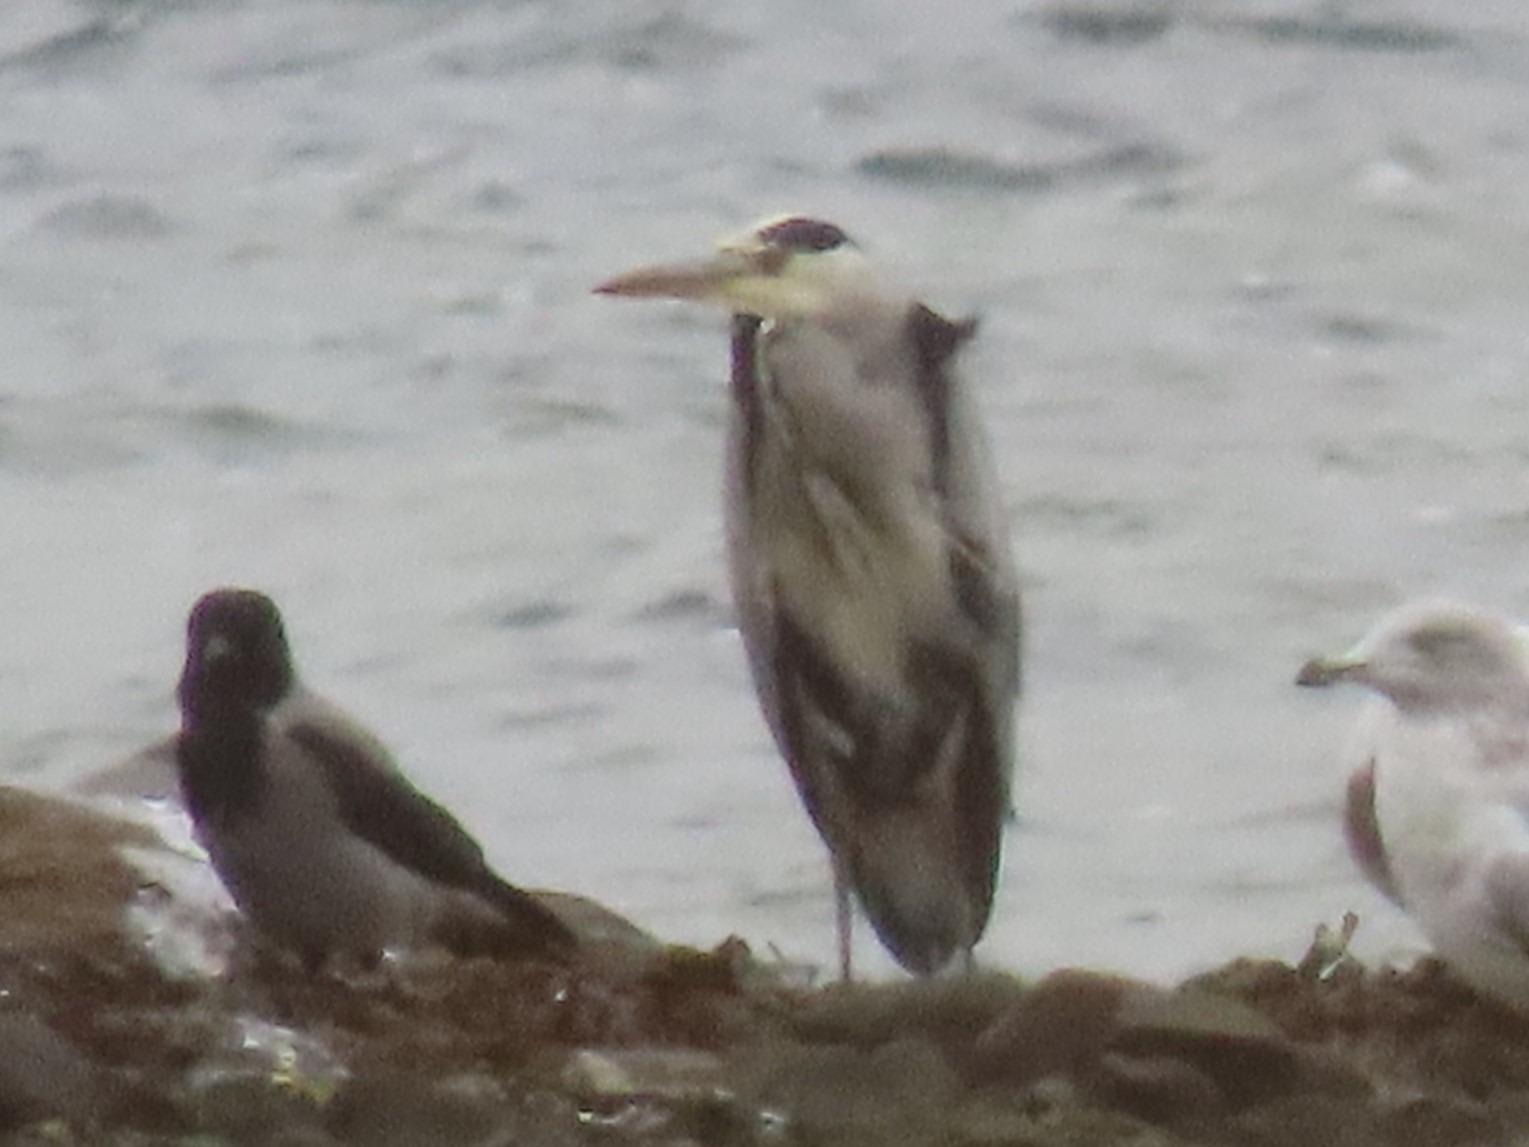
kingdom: Animalia
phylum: Chordata
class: Aves
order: Pelecaniformes
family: Ardeidae
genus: Ardea
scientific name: Ardea cinerea
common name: Fiskehejre
